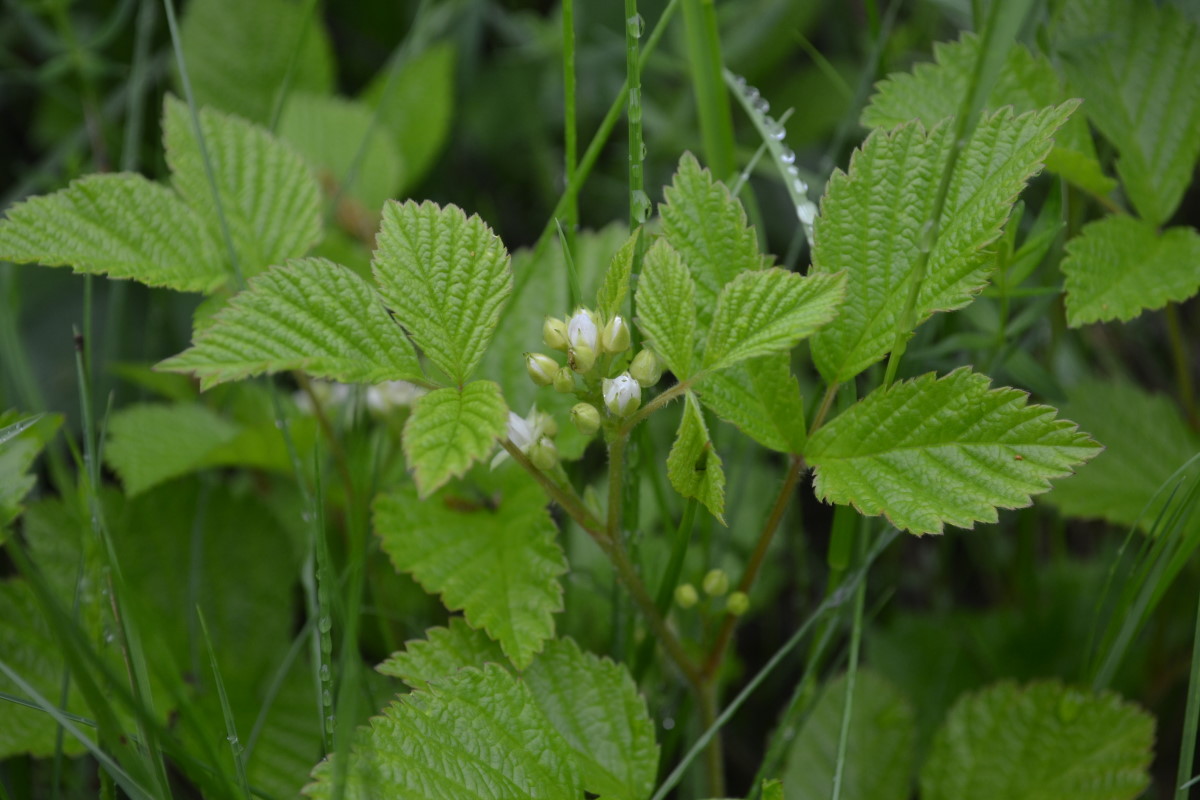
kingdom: Plantae
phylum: Tracheophyta
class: Magnoliopsida
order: Rosales
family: Rosaceae
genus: Rubus
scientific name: Rubus polonicus
